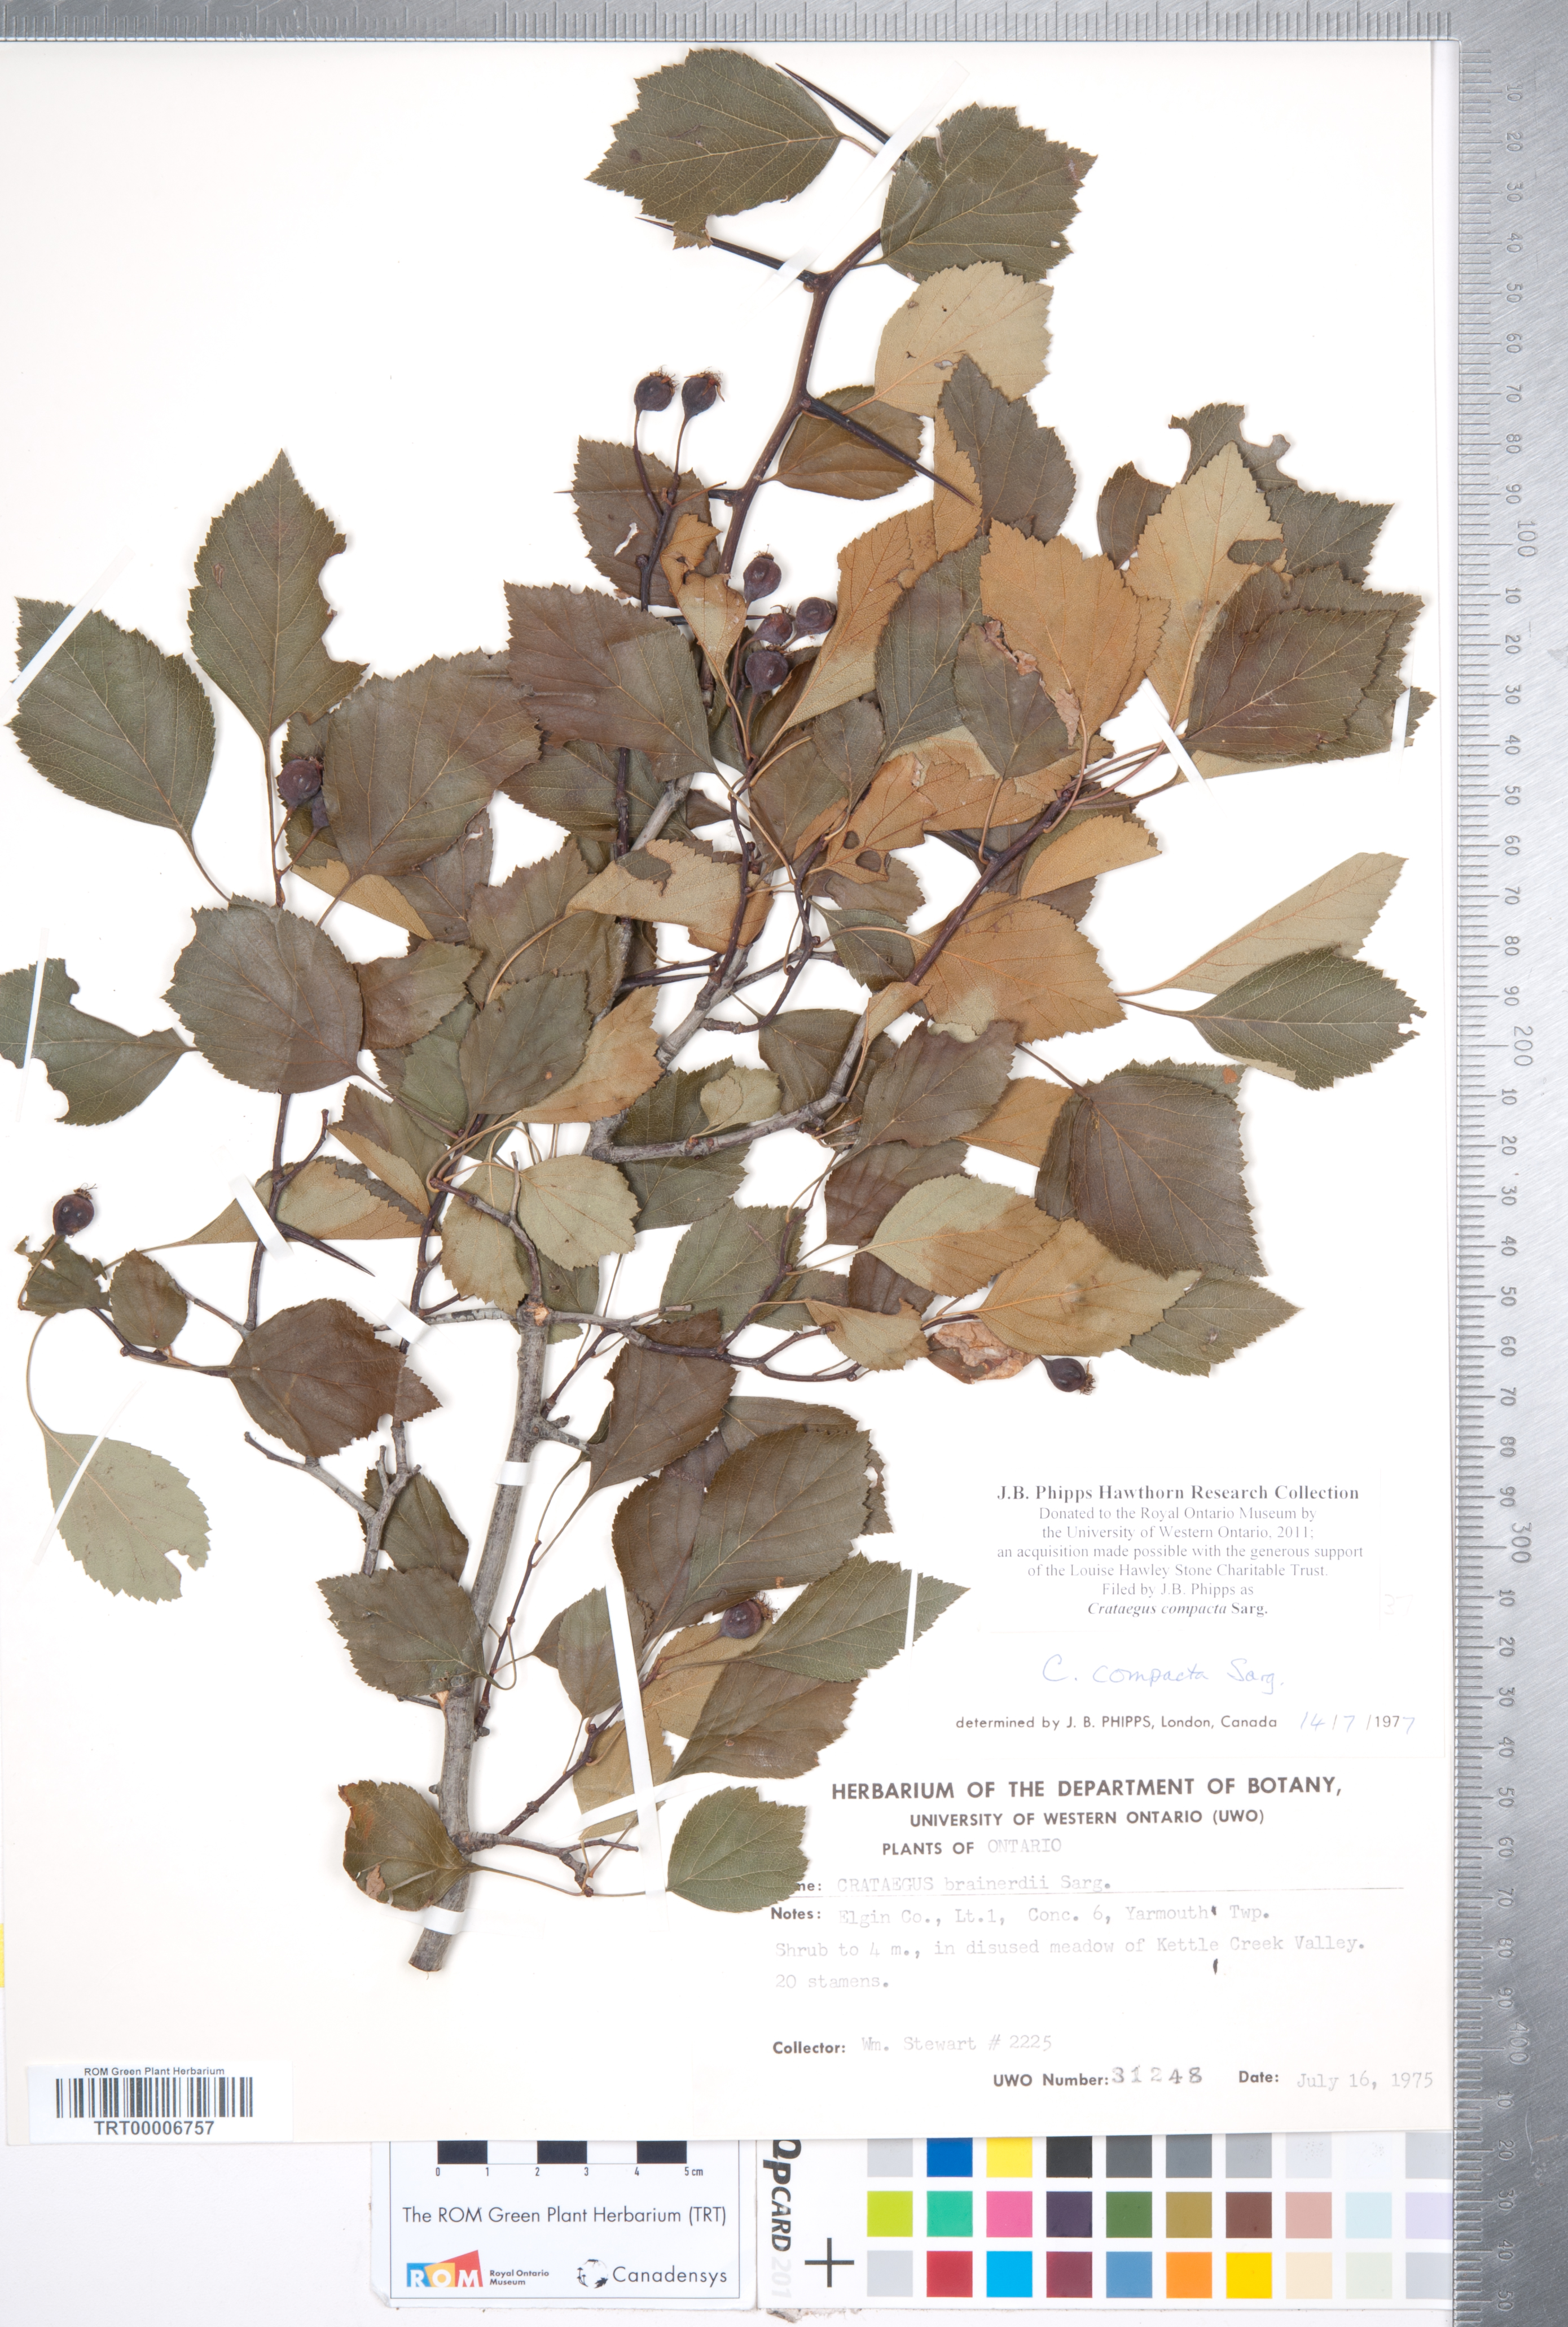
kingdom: Plantae
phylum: Tracheophyta
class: Magnoliopsida
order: Rosales
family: Rosaceae
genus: Crataegus
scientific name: Crataegus compacta
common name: Clustered hawthorn
